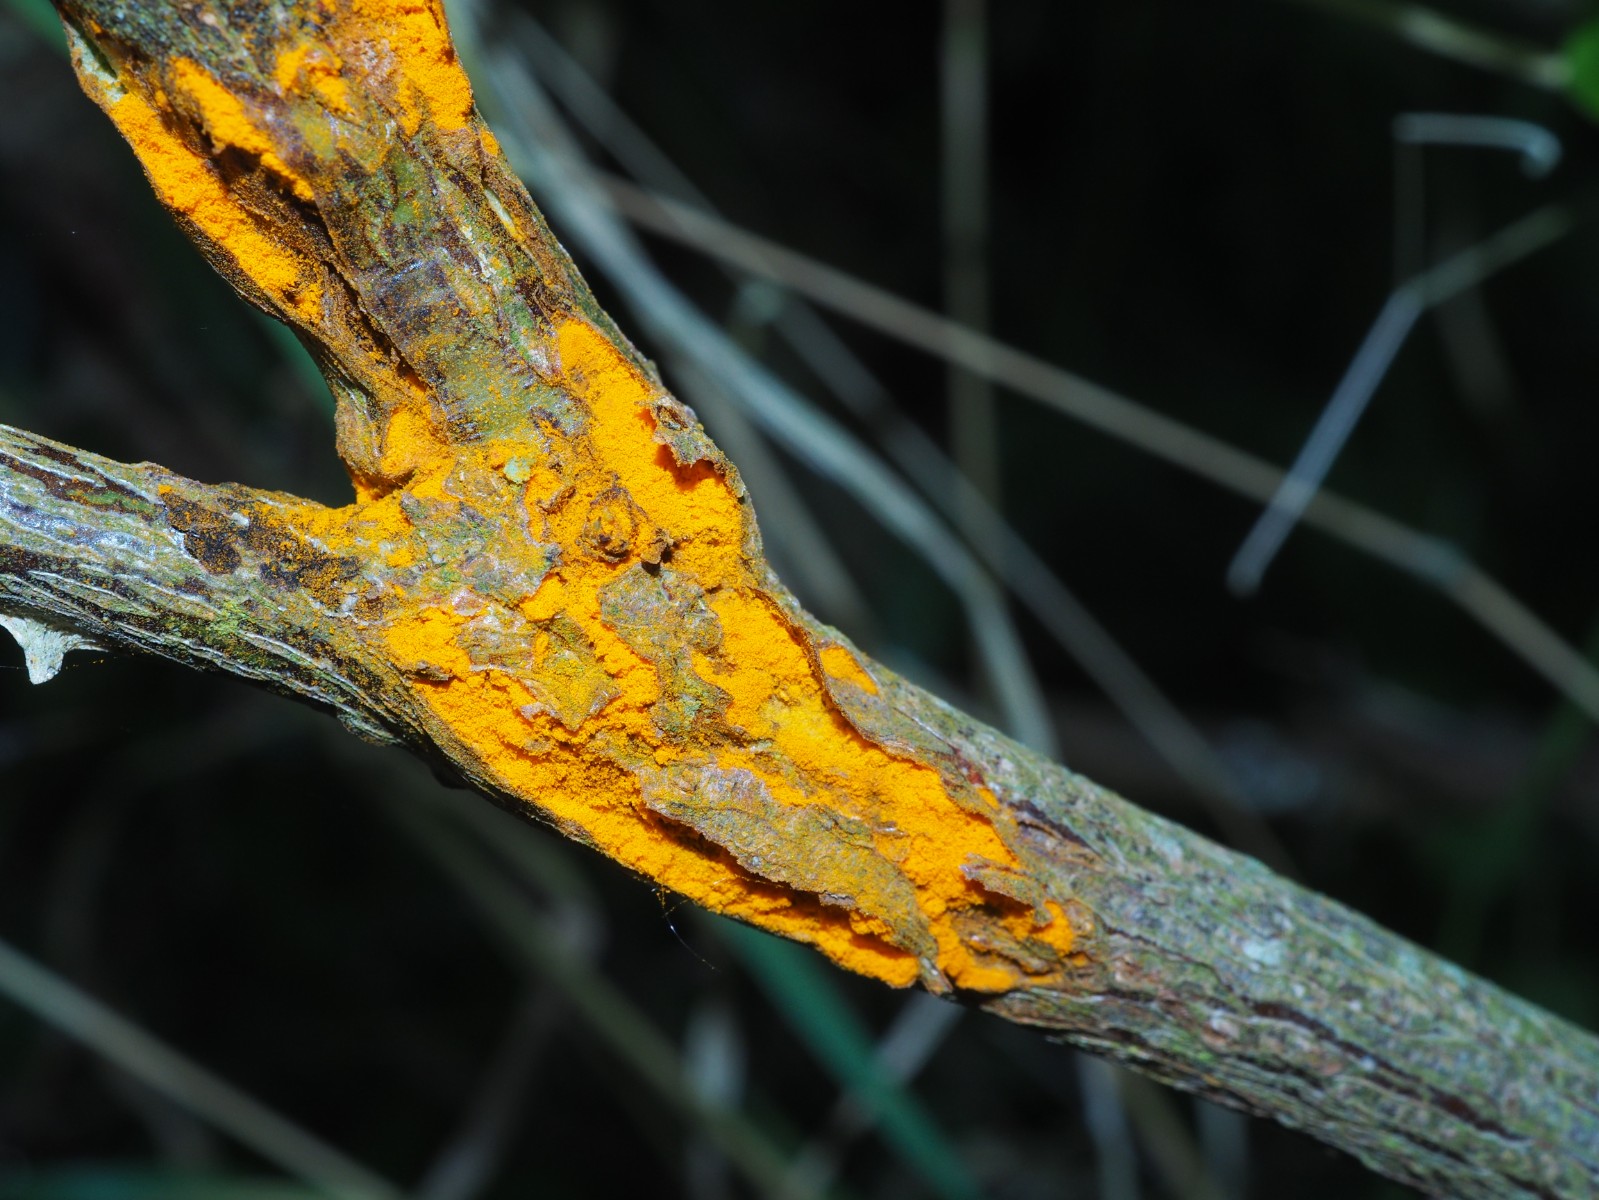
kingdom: Fungi
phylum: Basidiomycota
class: Pucciniomycetes
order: Pucciniales
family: Phragmidiaceae
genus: Phragmidium
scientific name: Phragmidium mucronatum
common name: rose-flercellerust
